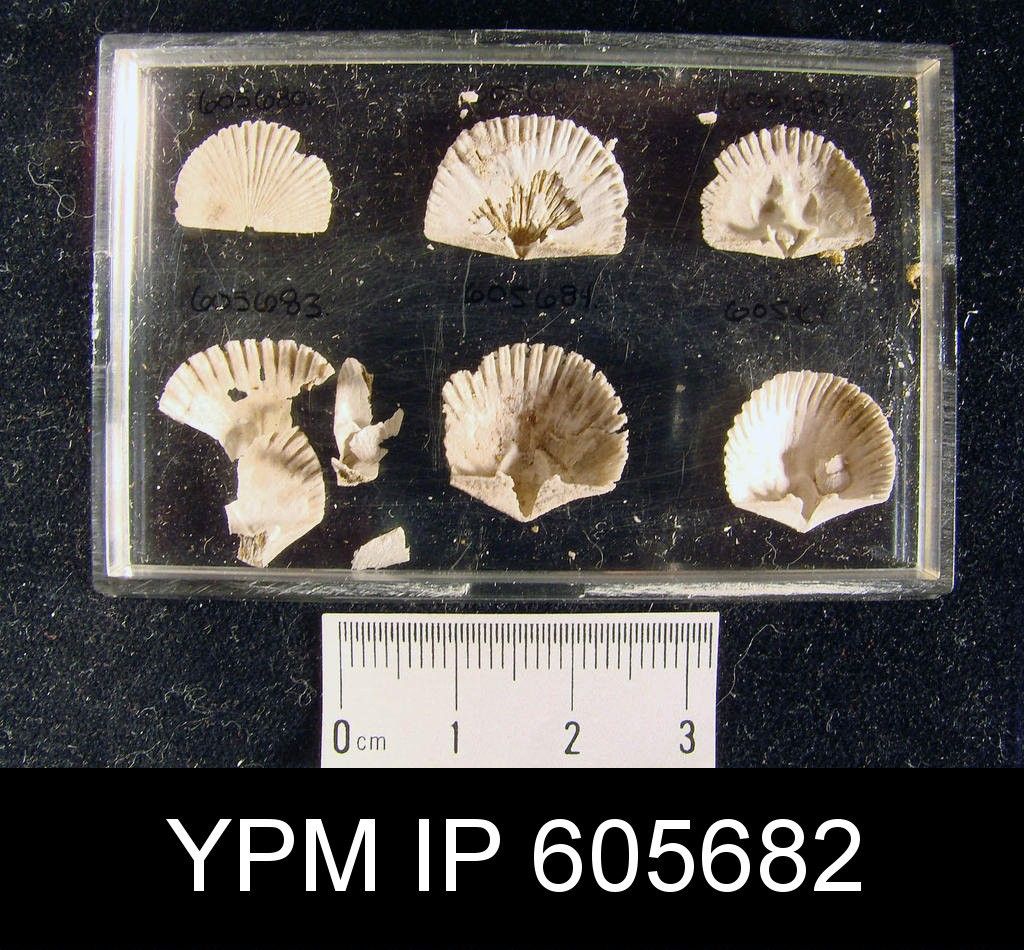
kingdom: Animalia
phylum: Brachiopoda
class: Rhynchonellata
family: Dolerorthidae
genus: Hesperorthis
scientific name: Hesperorthis Orthis tricenaria
